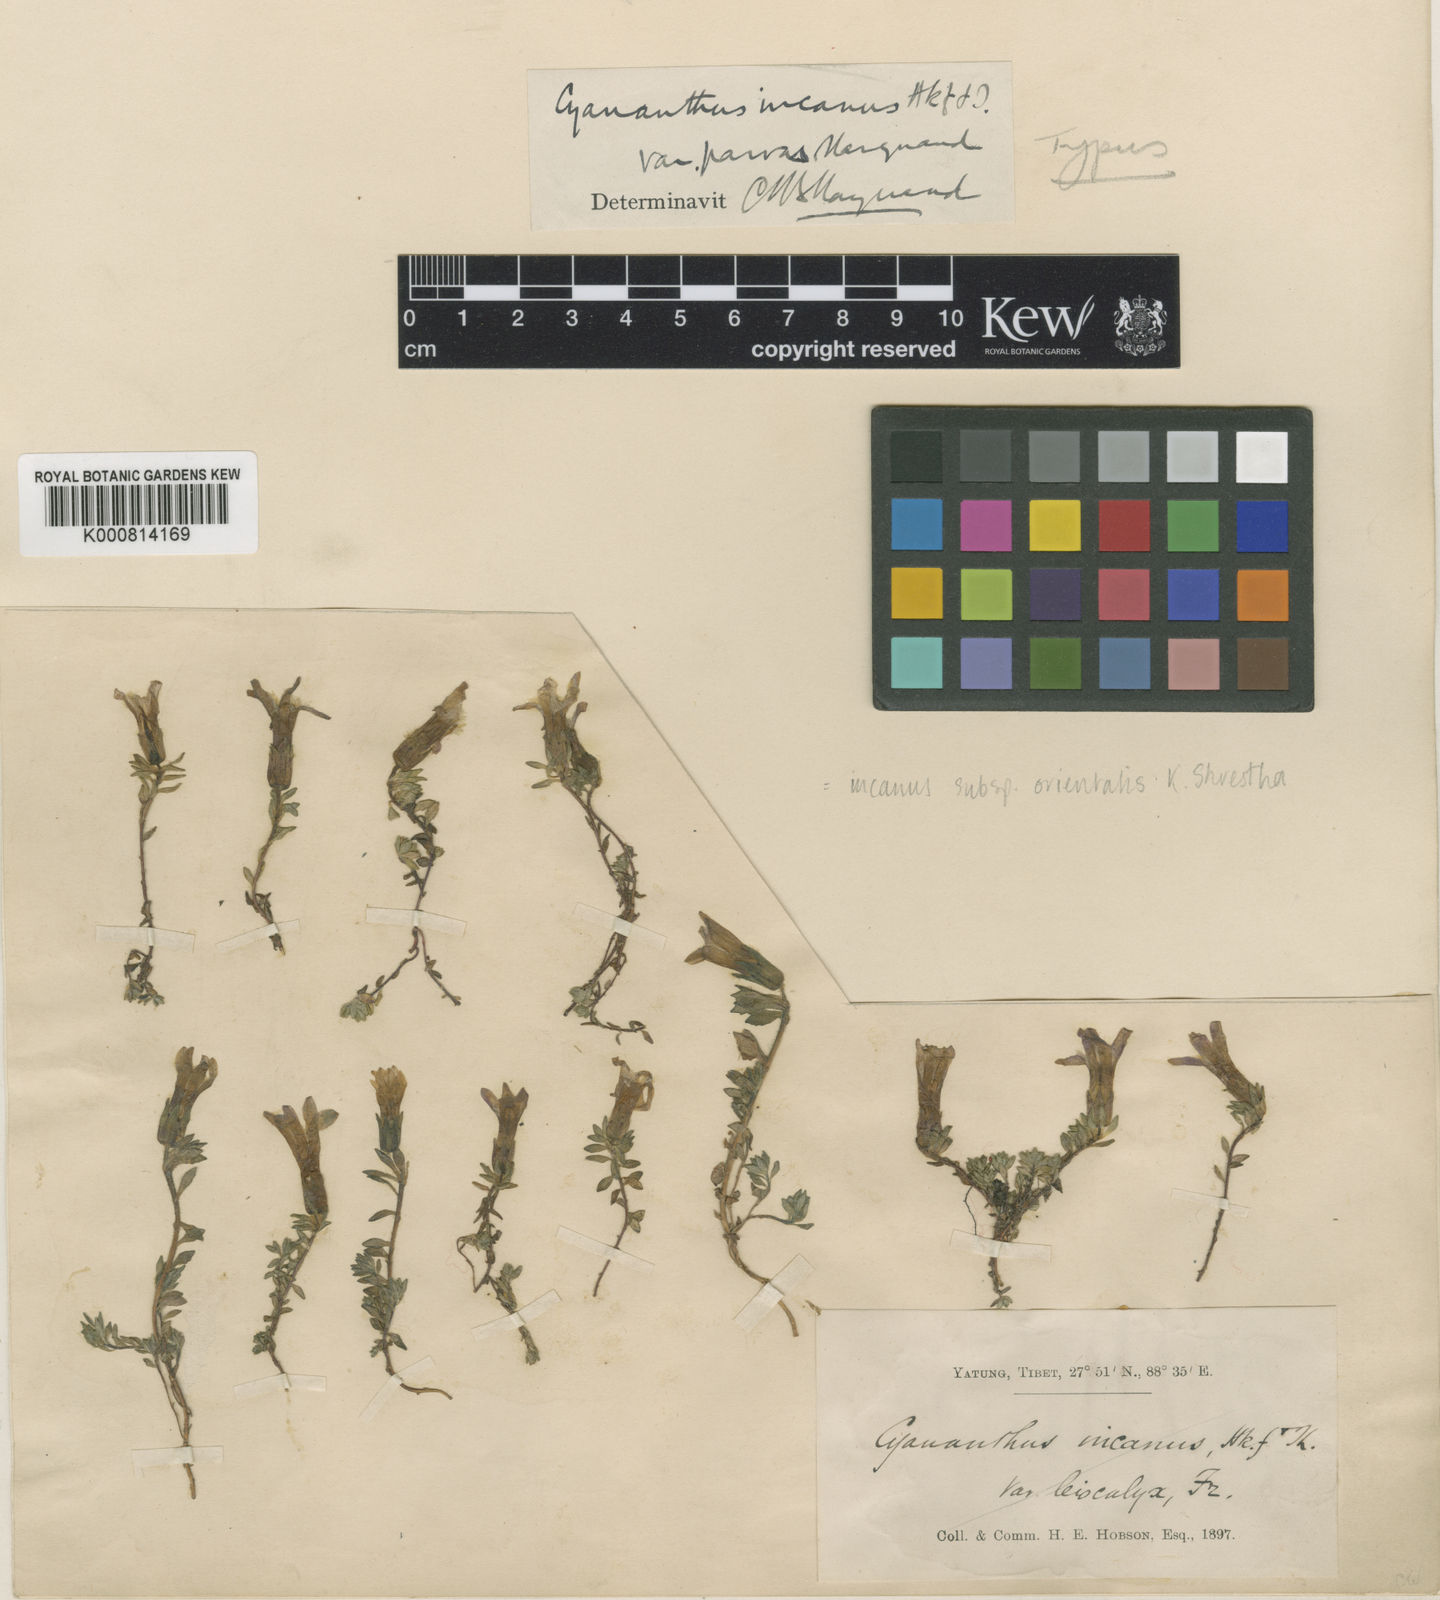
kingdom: Plantae
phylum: Tracheophyta
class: Magnoliopsida
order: Asterales
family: Campanulaceae
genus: Cyananthus
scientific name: Cyananthus incanus
